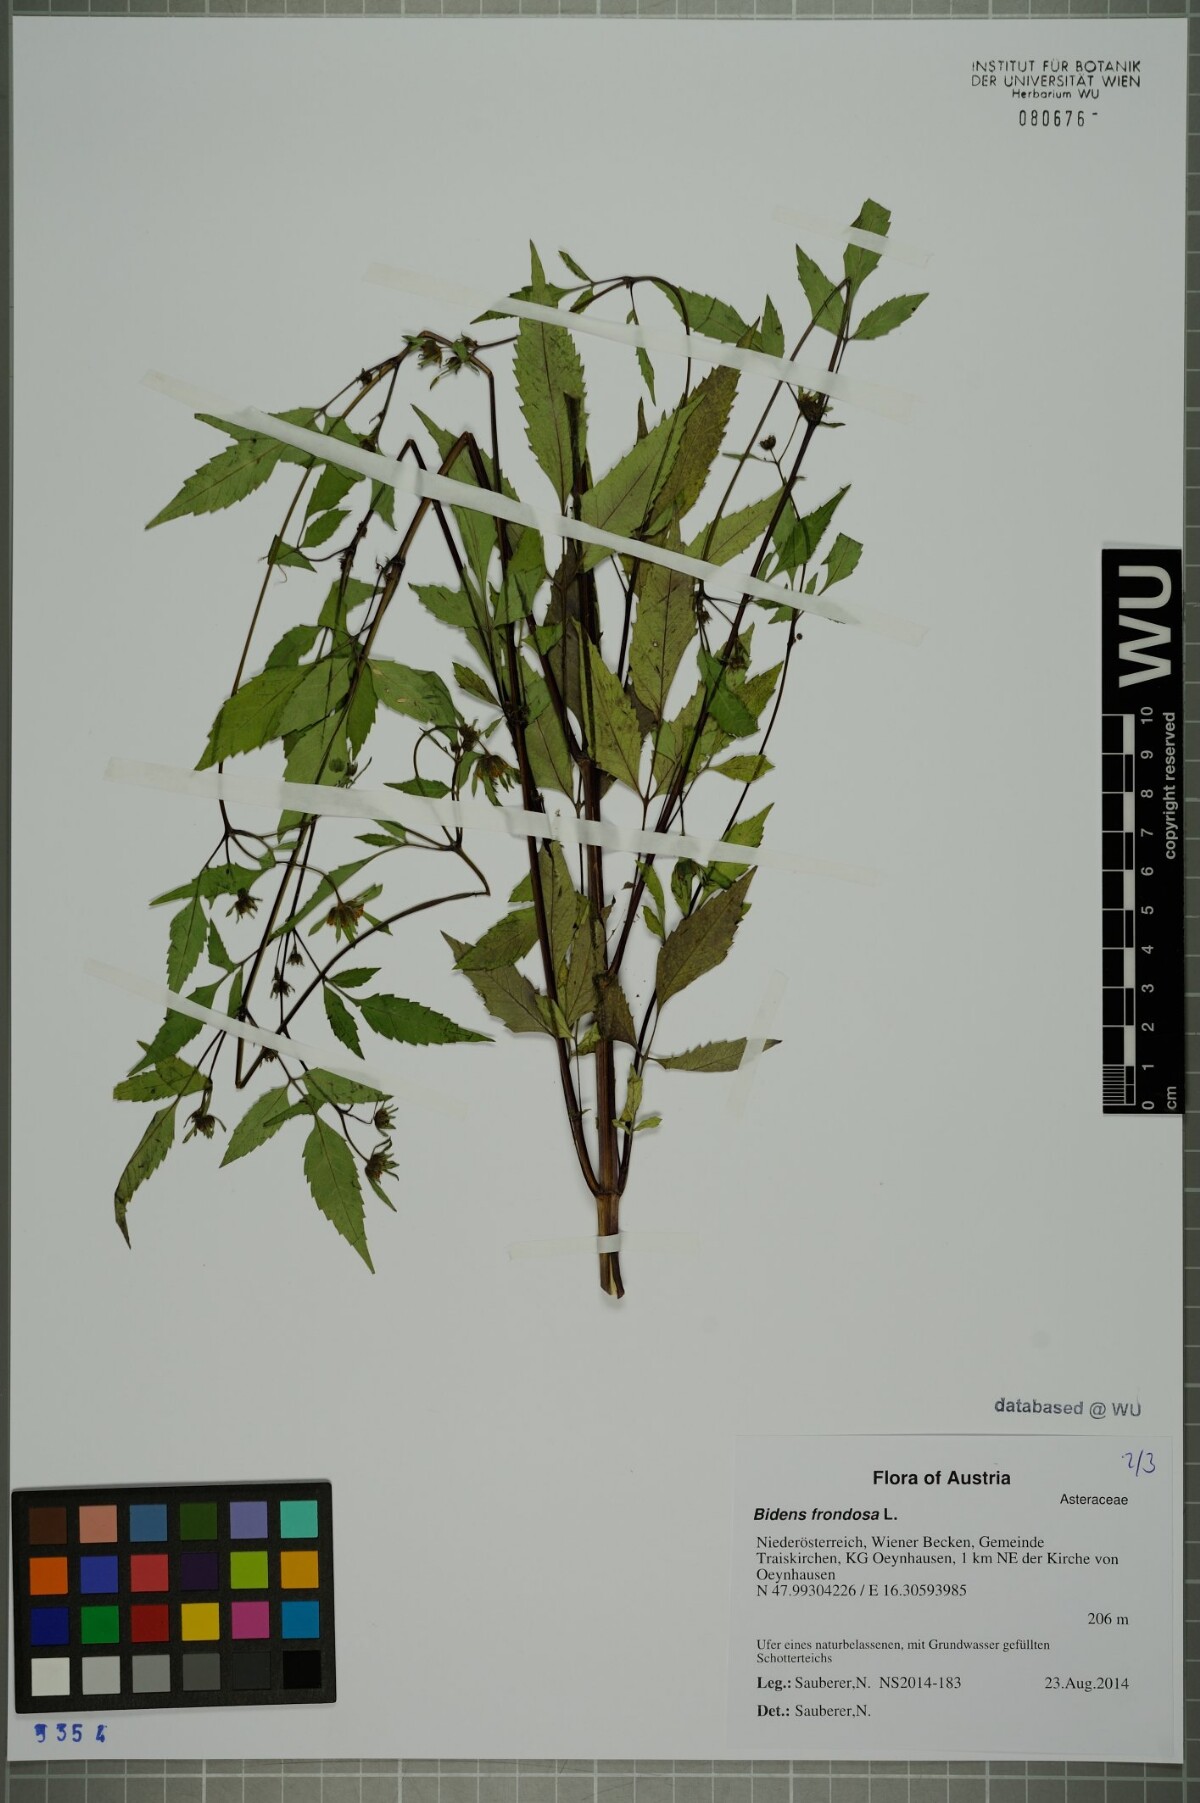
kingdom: Plantae
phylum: Tracheophyta
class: Magnoliopsida
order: Asterales
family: Asteraceae
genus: Bidens
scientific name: Bidens frondosa
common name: Beggarticks
